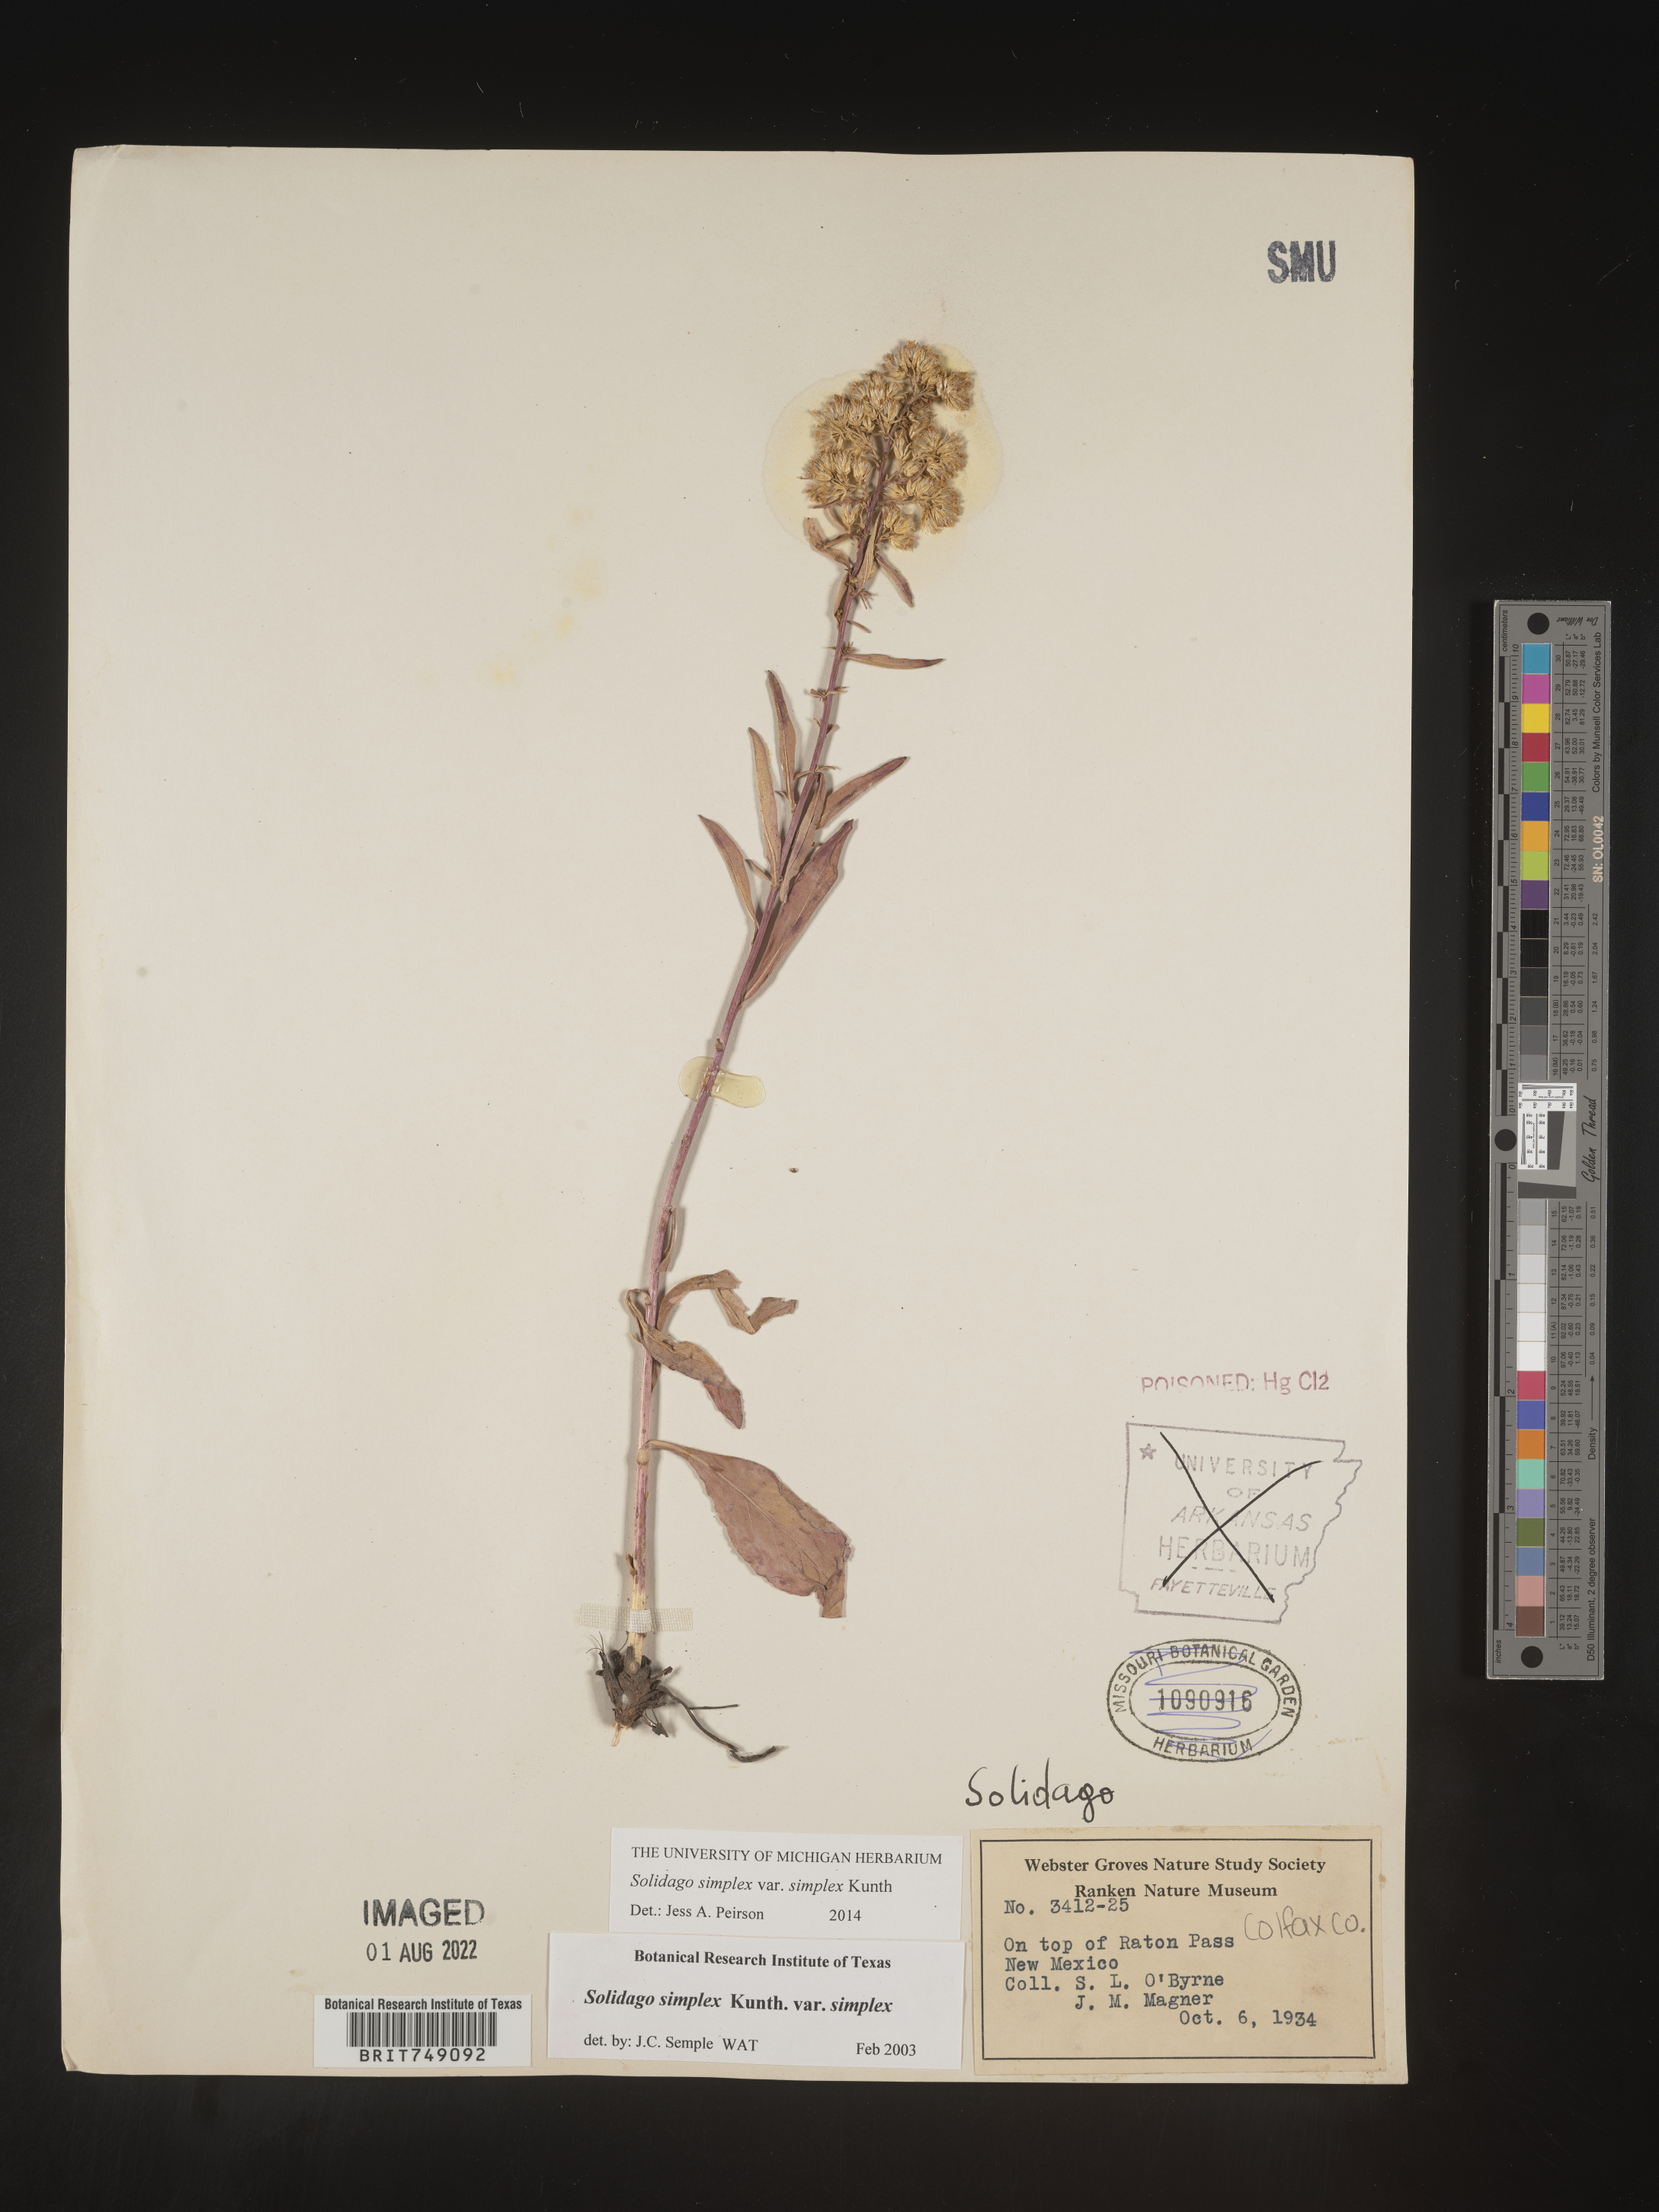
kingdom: Plantae
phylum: Tracheophyta
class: Magnoliopsida
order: Asterales
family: Asteraceae
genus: Solidago
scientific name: Solidago simplex
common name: Sticky goldenrod
